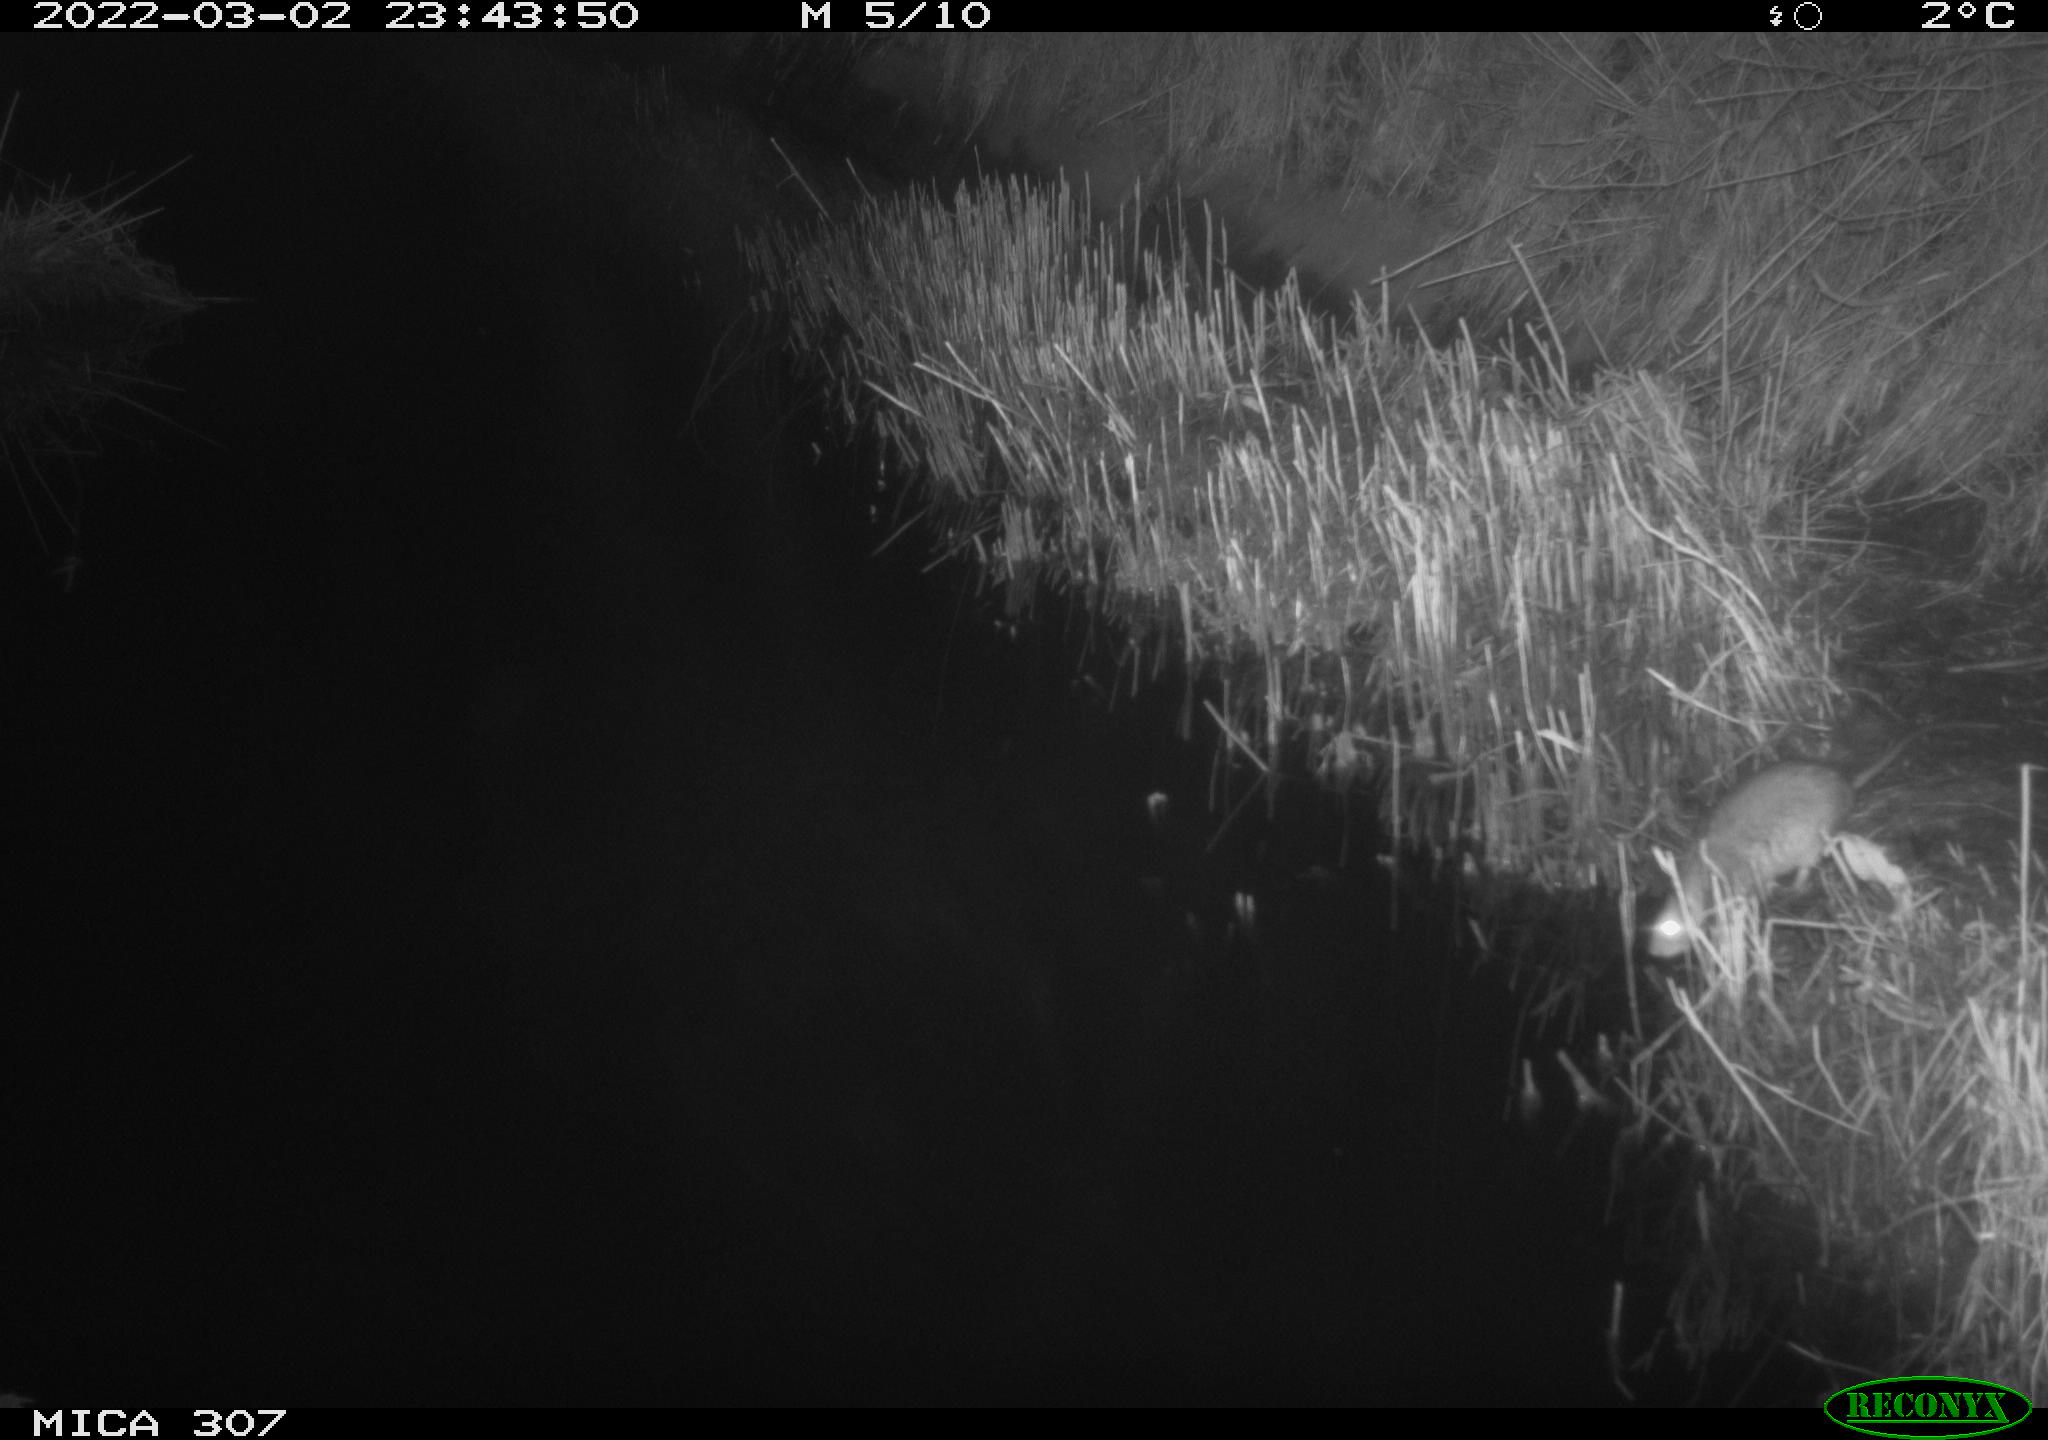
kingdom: Animalia
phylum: Chordata
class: Mammalia
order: Rodentia
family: Muridae
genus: Rattus
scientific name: Rattus norvegicus
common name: Brown rat
